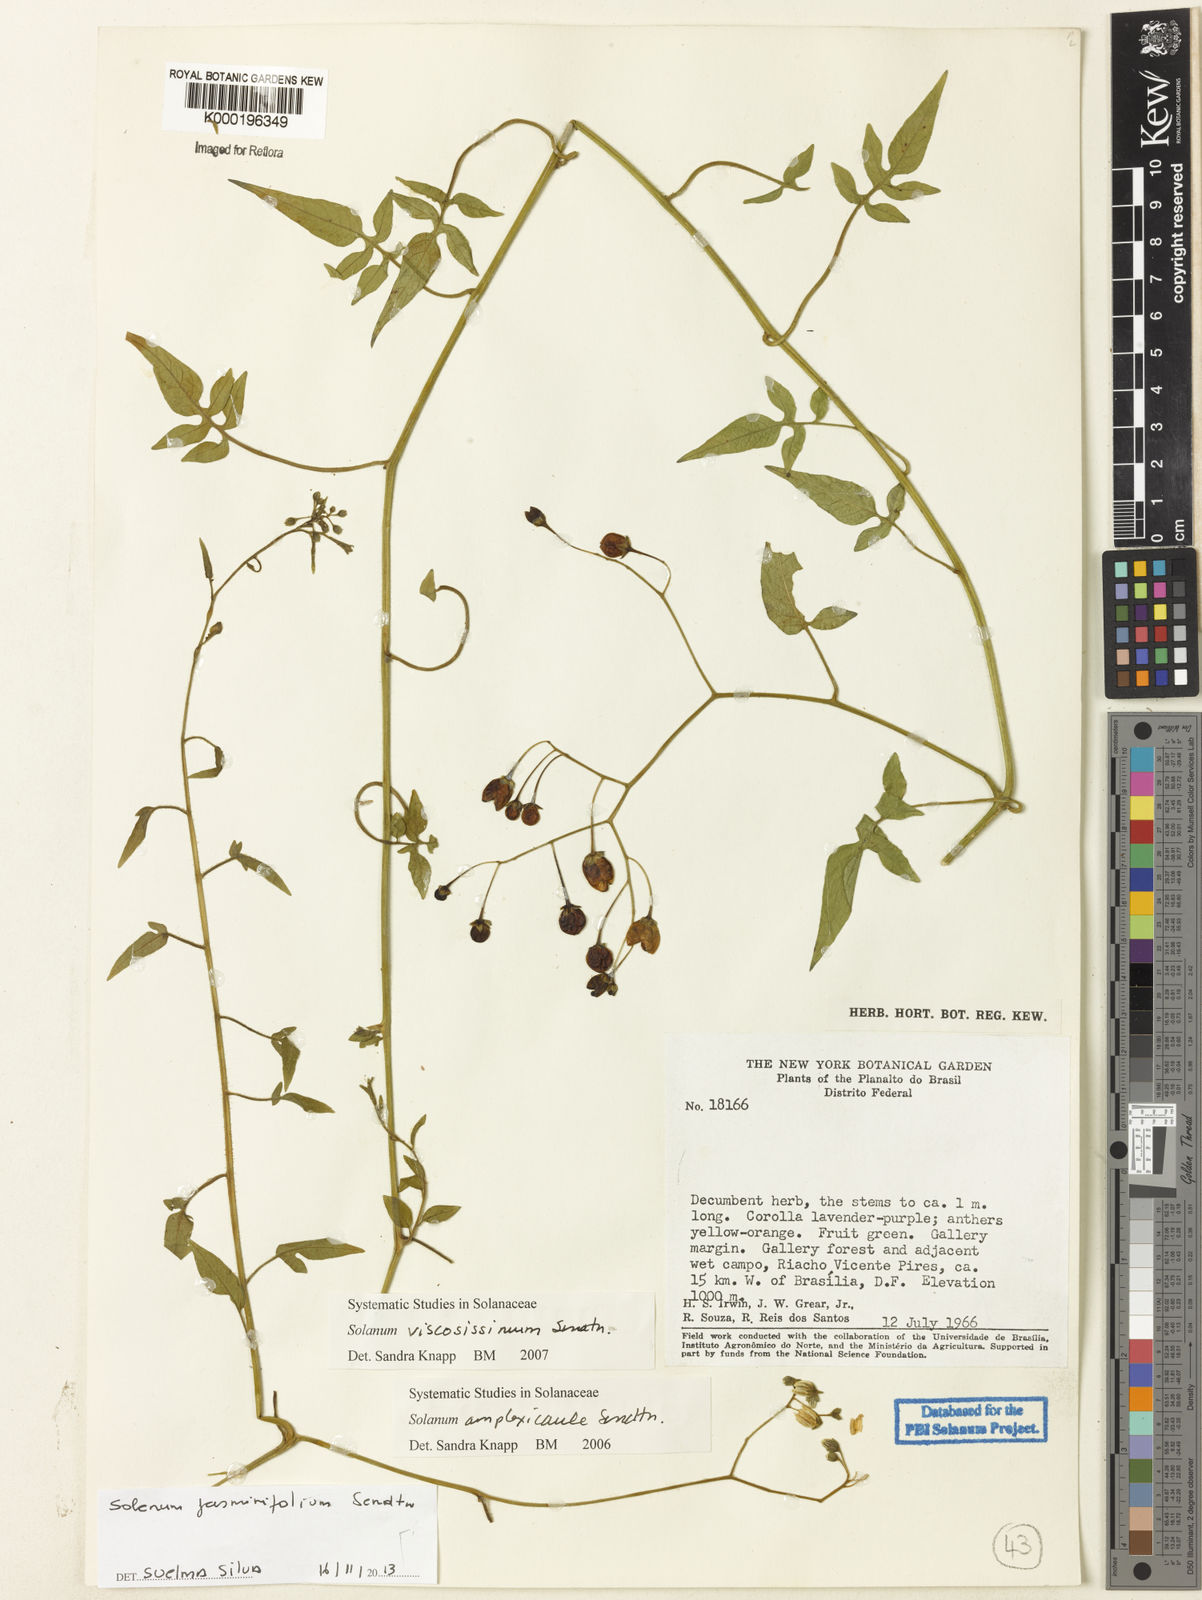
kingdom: Plantae
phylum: Tracheophyta
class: Magnoliopsida
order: Solanales
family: Solanaceae
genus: Solanum
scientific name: Solanum viscosissimum
